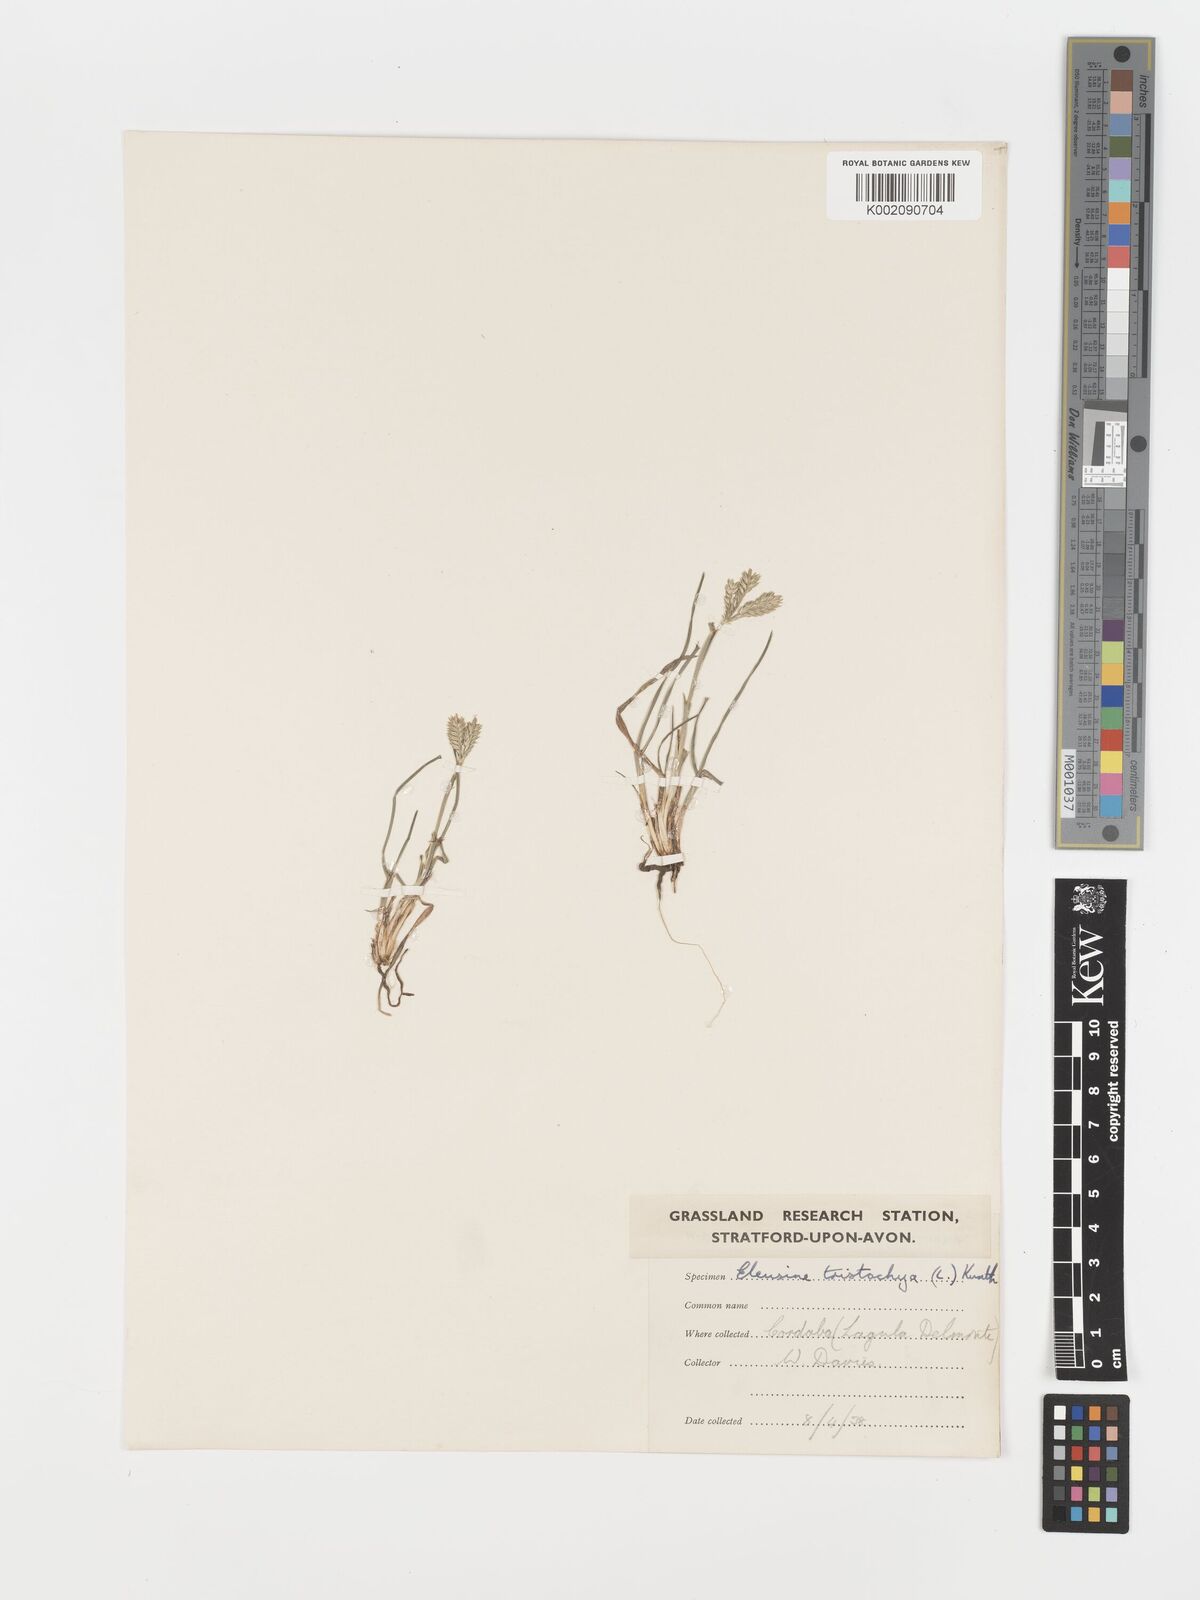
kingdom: Plantae
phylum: Tracheophyta
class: Liliopsida
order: Poales
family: Poaceae
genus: Eleusine
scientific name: Eleusine tristachya
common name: American yard-grass
